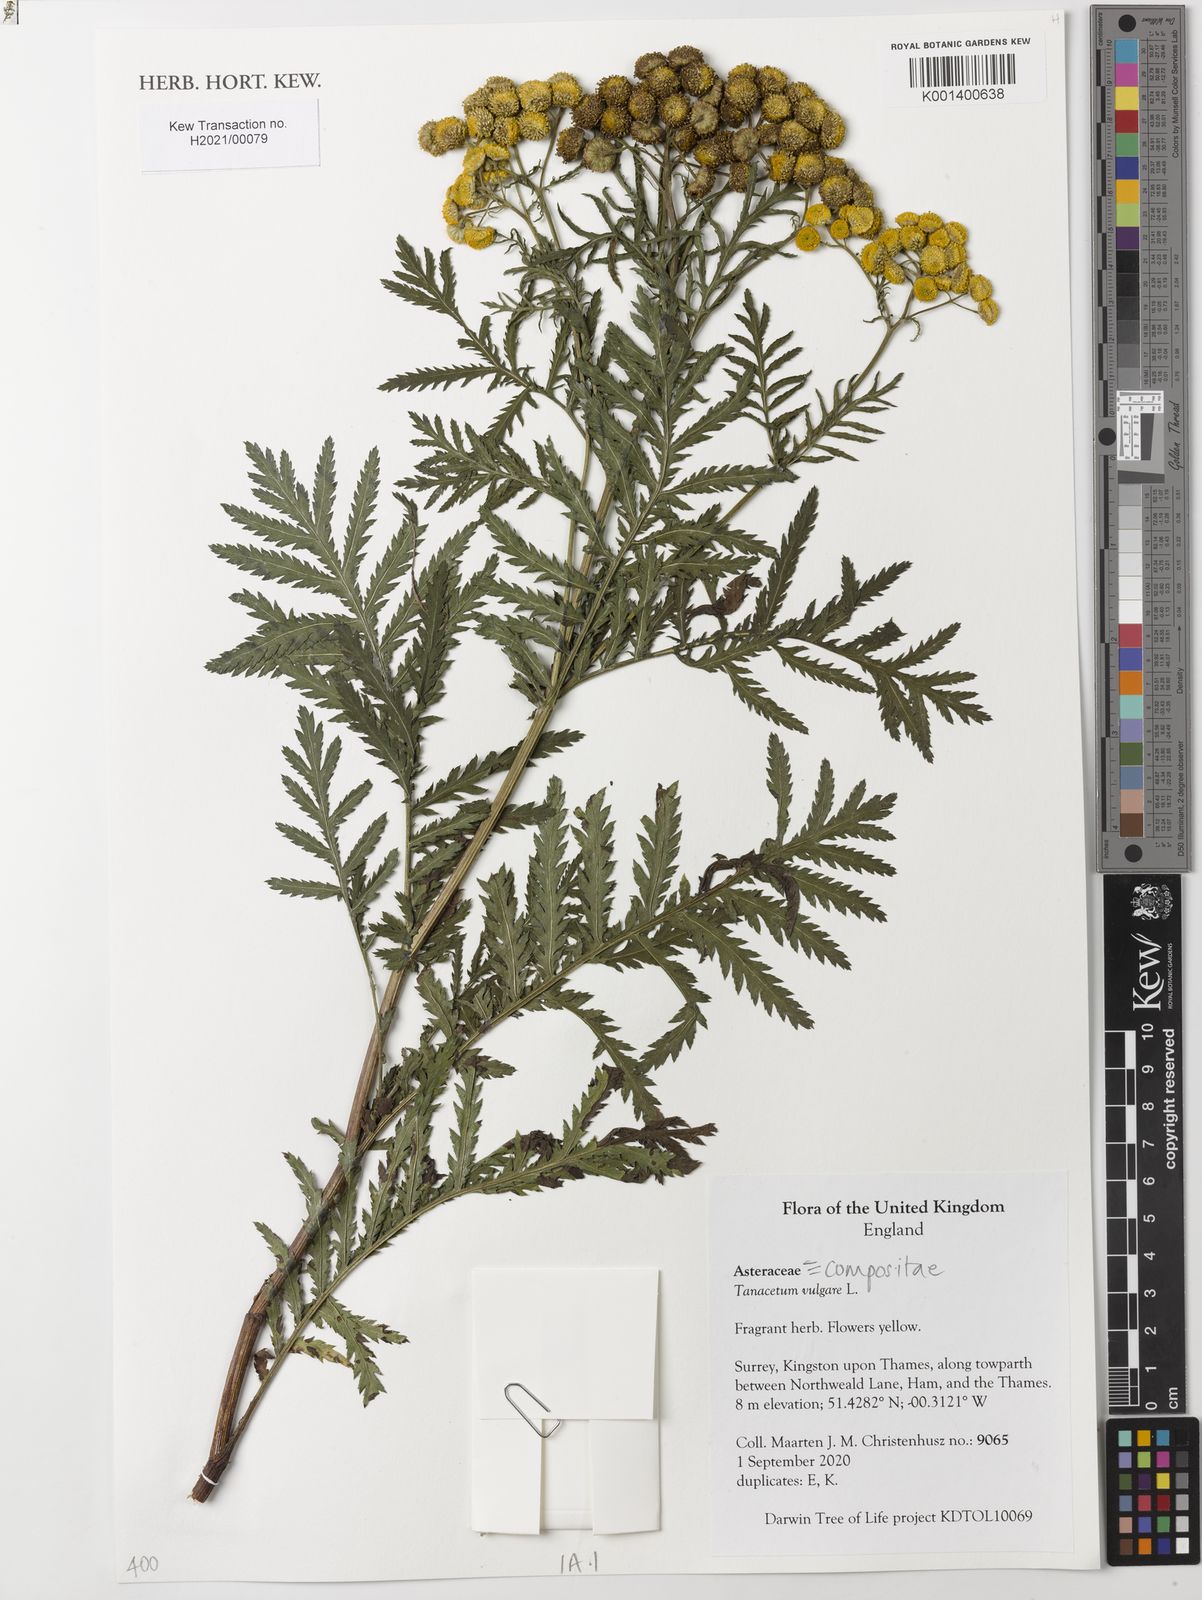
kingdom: Plantae
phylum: Tracheophyta
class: Magnoliopsida
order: Asterales
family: Asteraceae
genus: Tanacetum
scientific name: Tanacetum vulgare
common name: Common tansy
